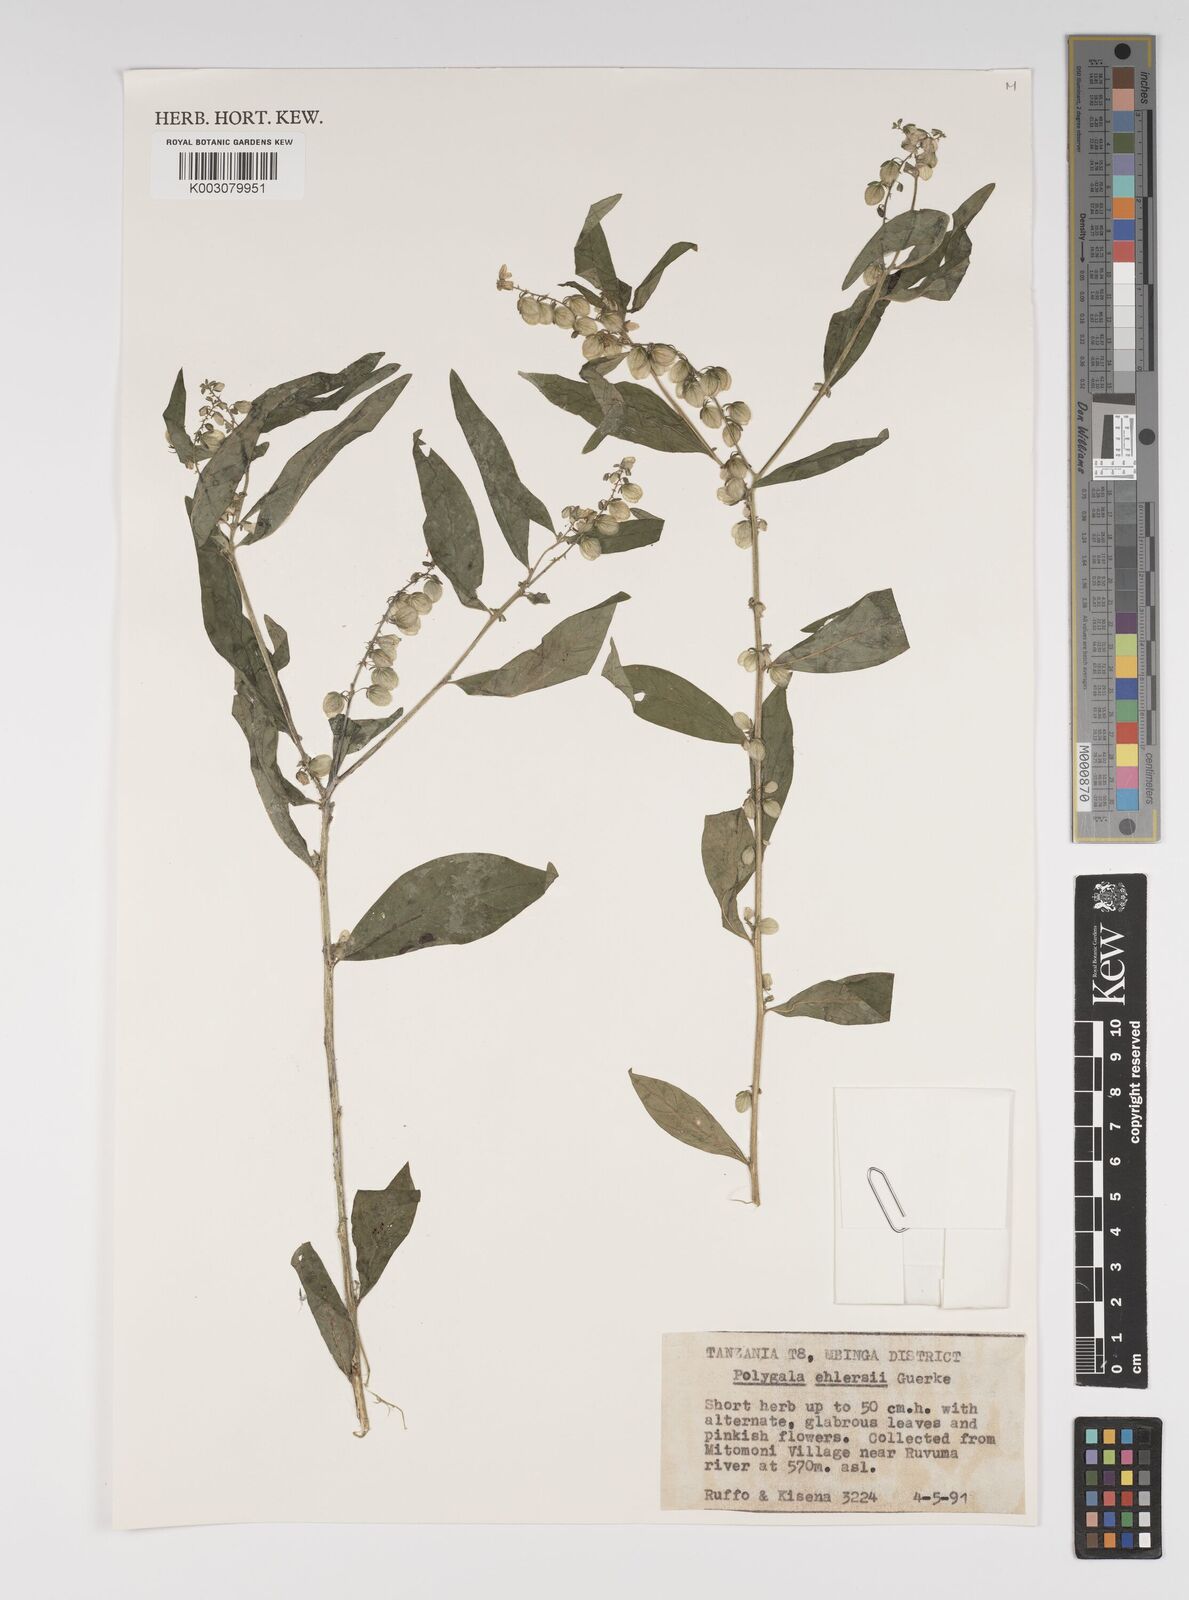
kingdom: Plantae
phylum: Tracheophyta
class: Magnoliopsida
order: Fabales
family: Polygalaceae
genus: Polygala
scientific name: Polygala persicariifolia
